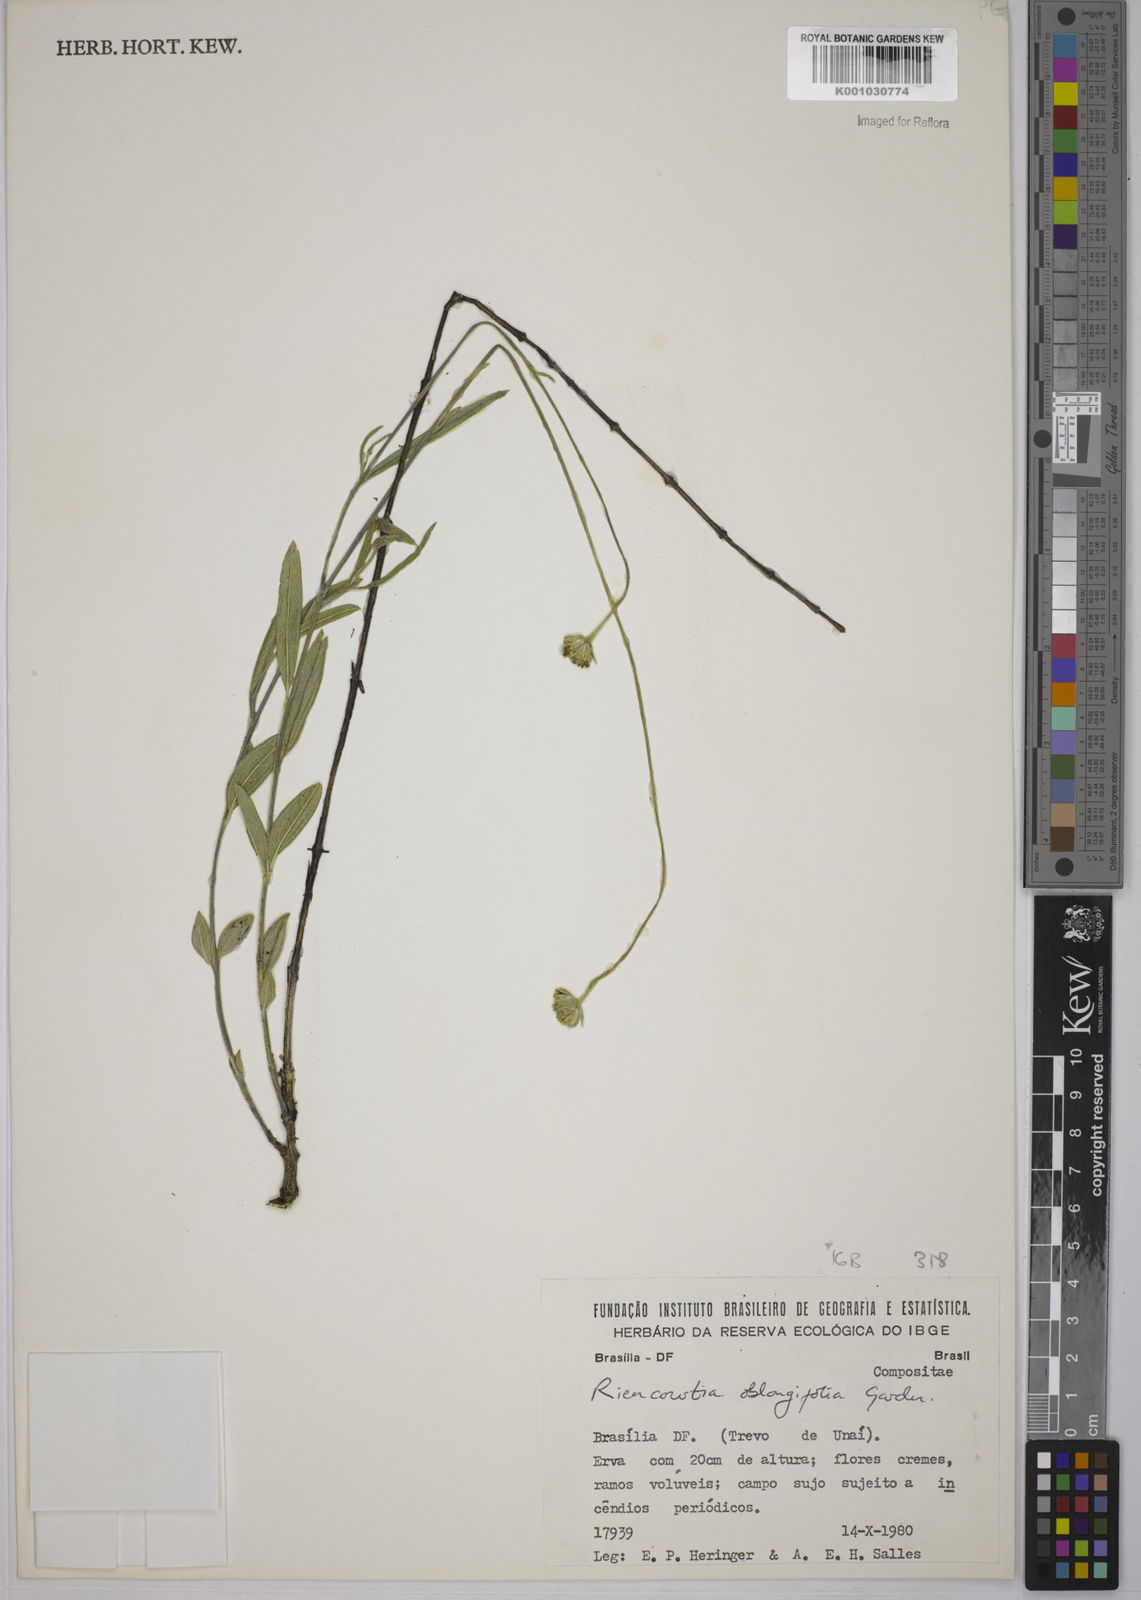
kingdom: Plantae
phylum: Tracheophyta
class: Magnoliopsida
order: Asterales
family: Asteraceae
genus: Riencourtia
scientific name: Riencourtia oblongifolia
